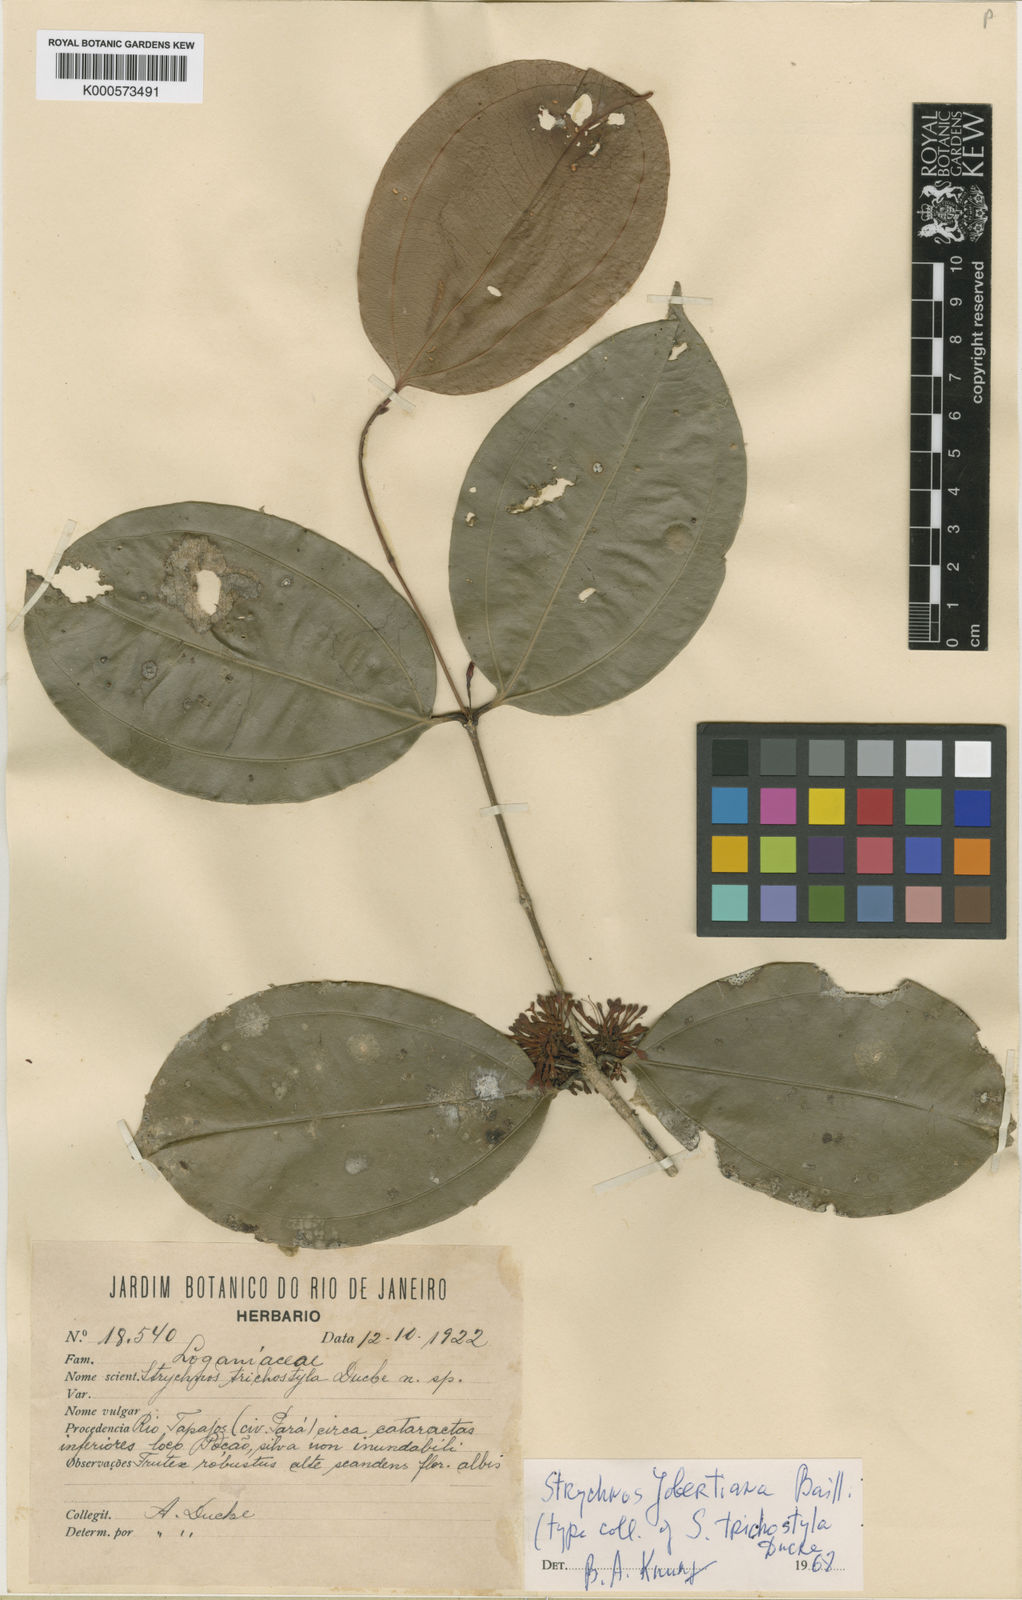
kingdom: Plantae
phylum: Tracheophyta
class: Magnoliopsida
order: Gentianales
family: Loganiaceae
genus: Strychnos
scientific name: Strychnos jobertiana
